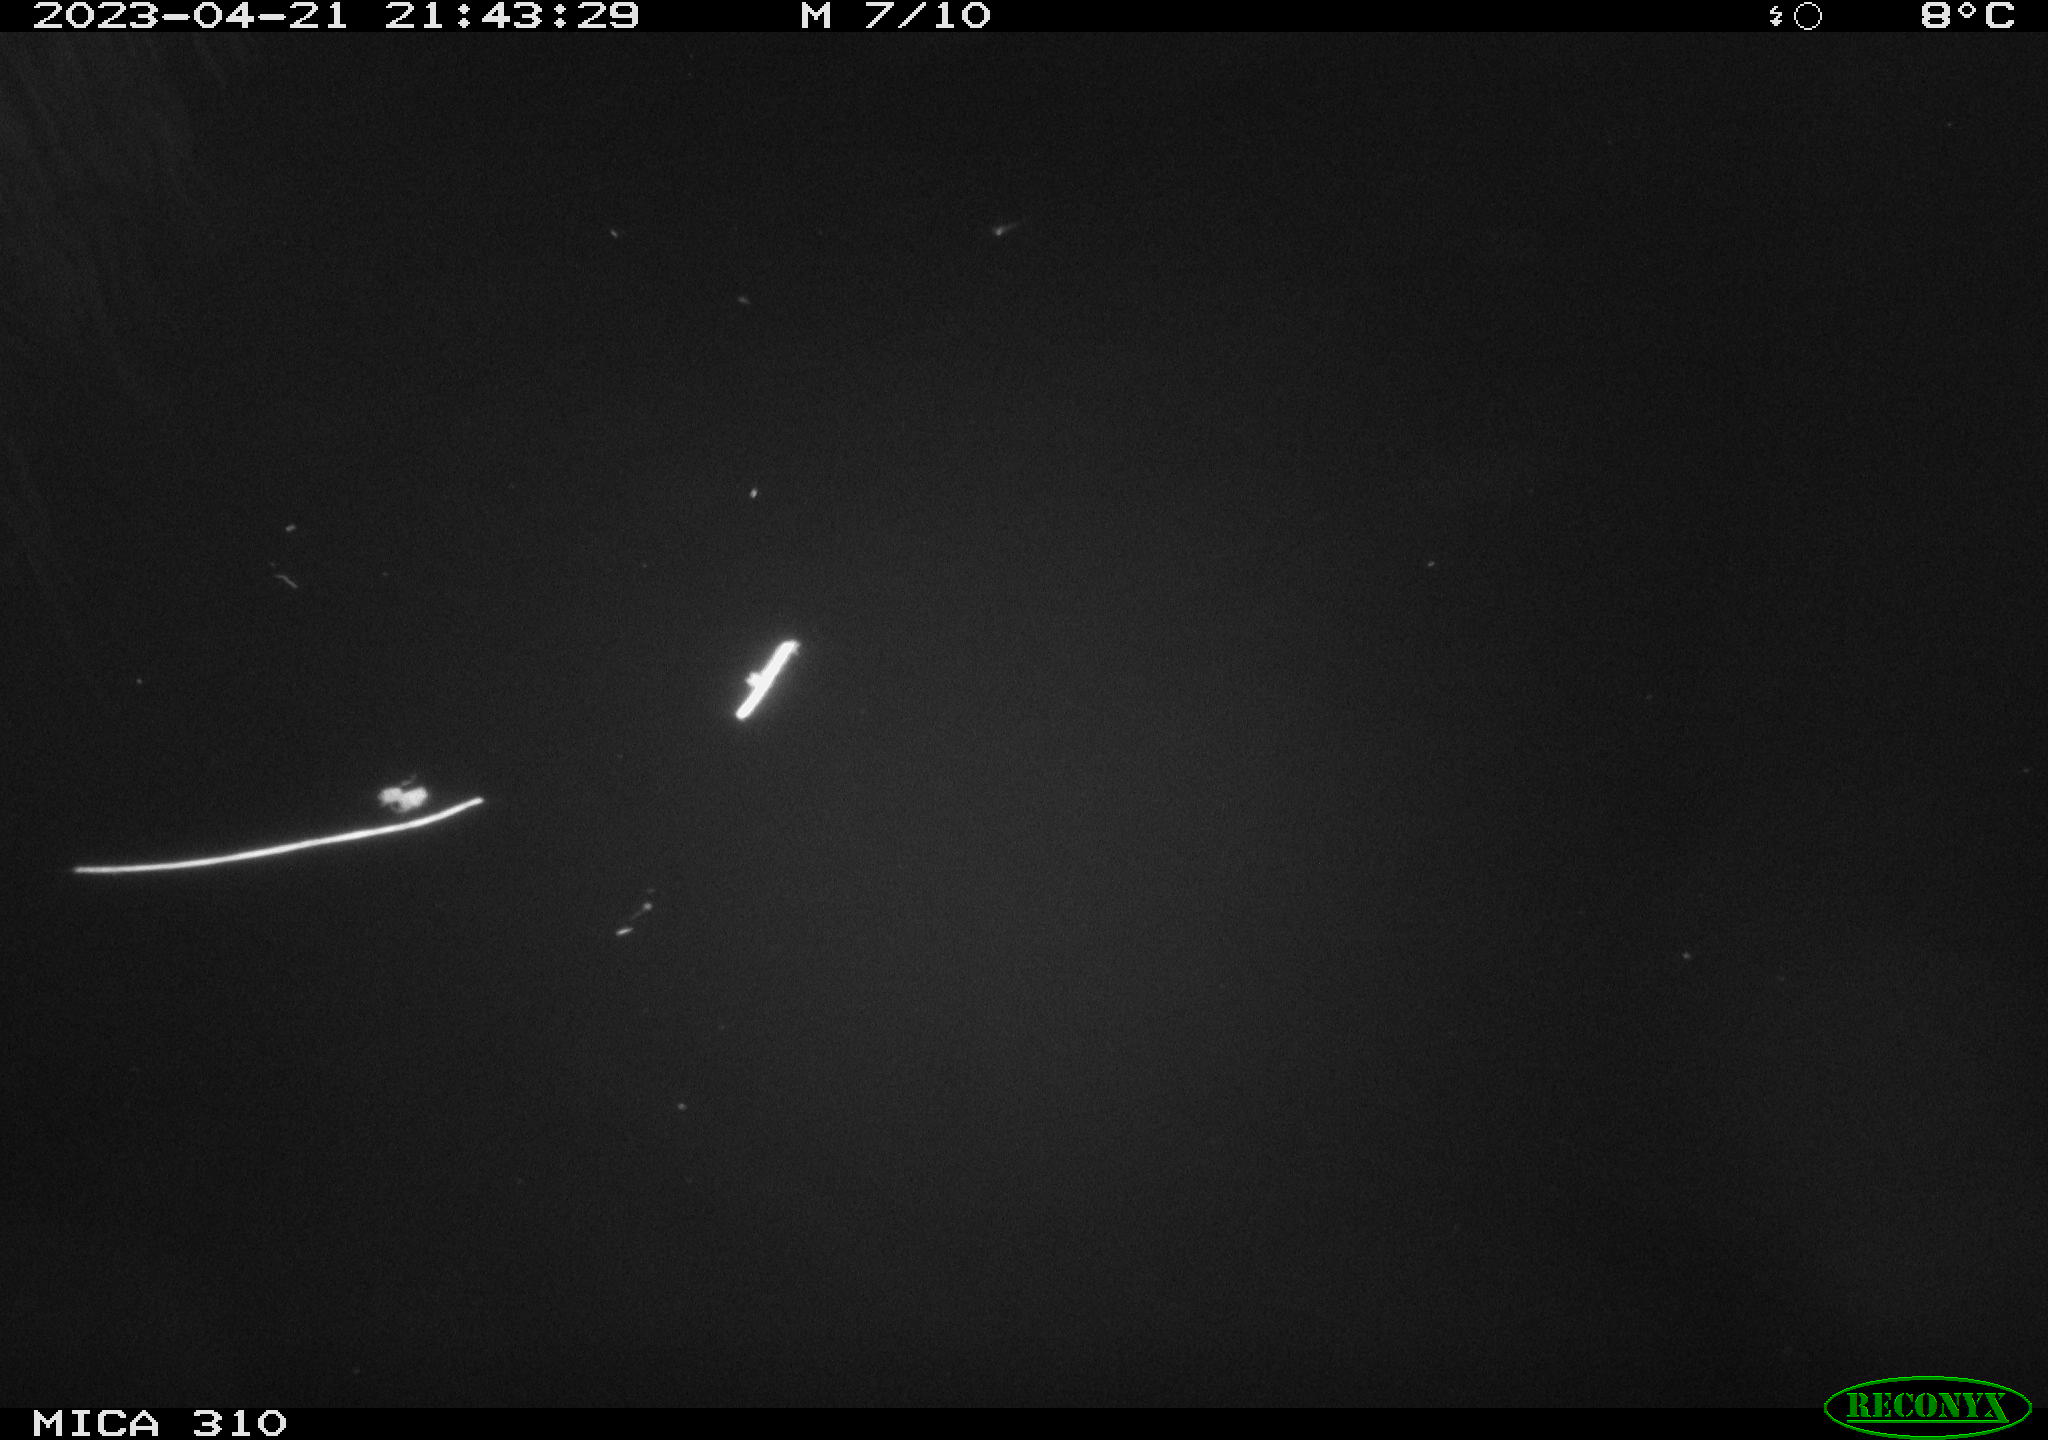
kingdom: Animalia
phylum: Chordata
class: Aves
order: Anseriformes
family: Anatidae
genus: Anas
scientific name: Anas
